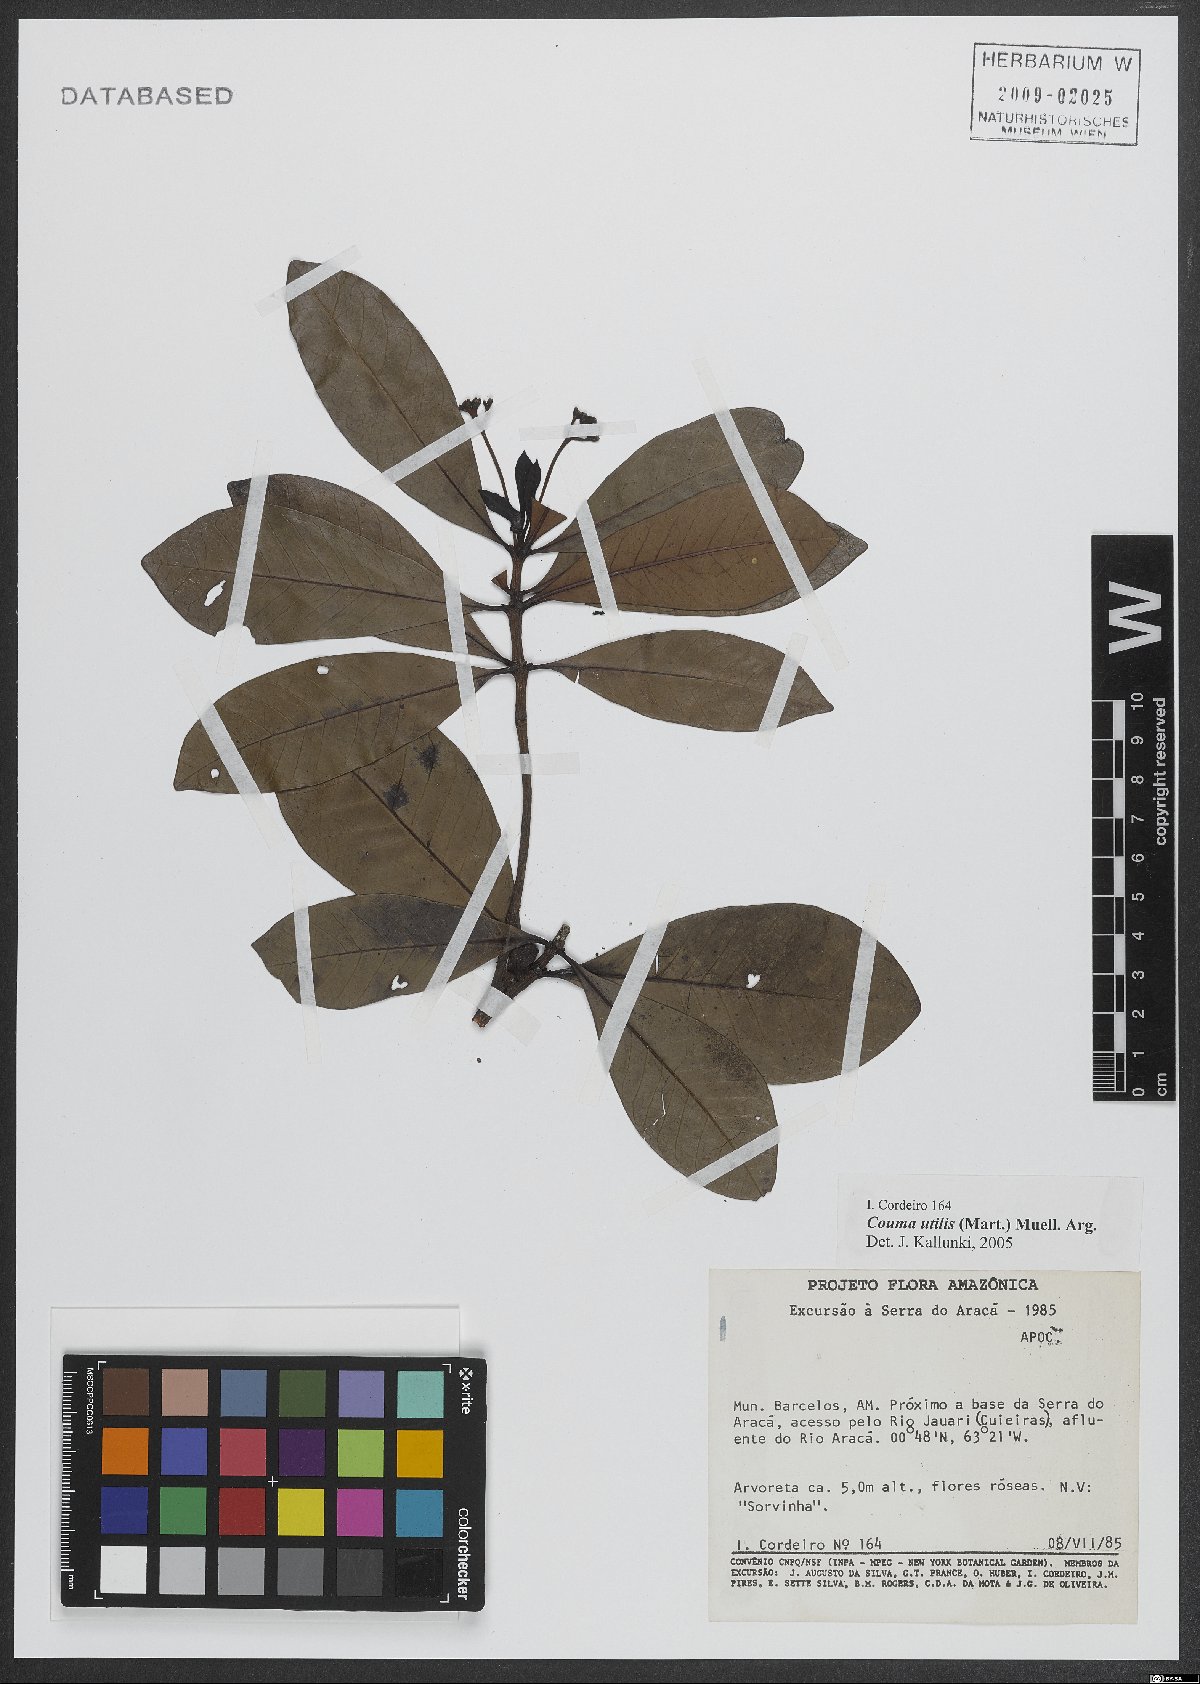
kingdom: Plantae
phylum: Tracheophyta
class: Magnoliopsida
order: Gentianales
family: Apocynaceae
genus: Couma
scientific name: Couma utilis
